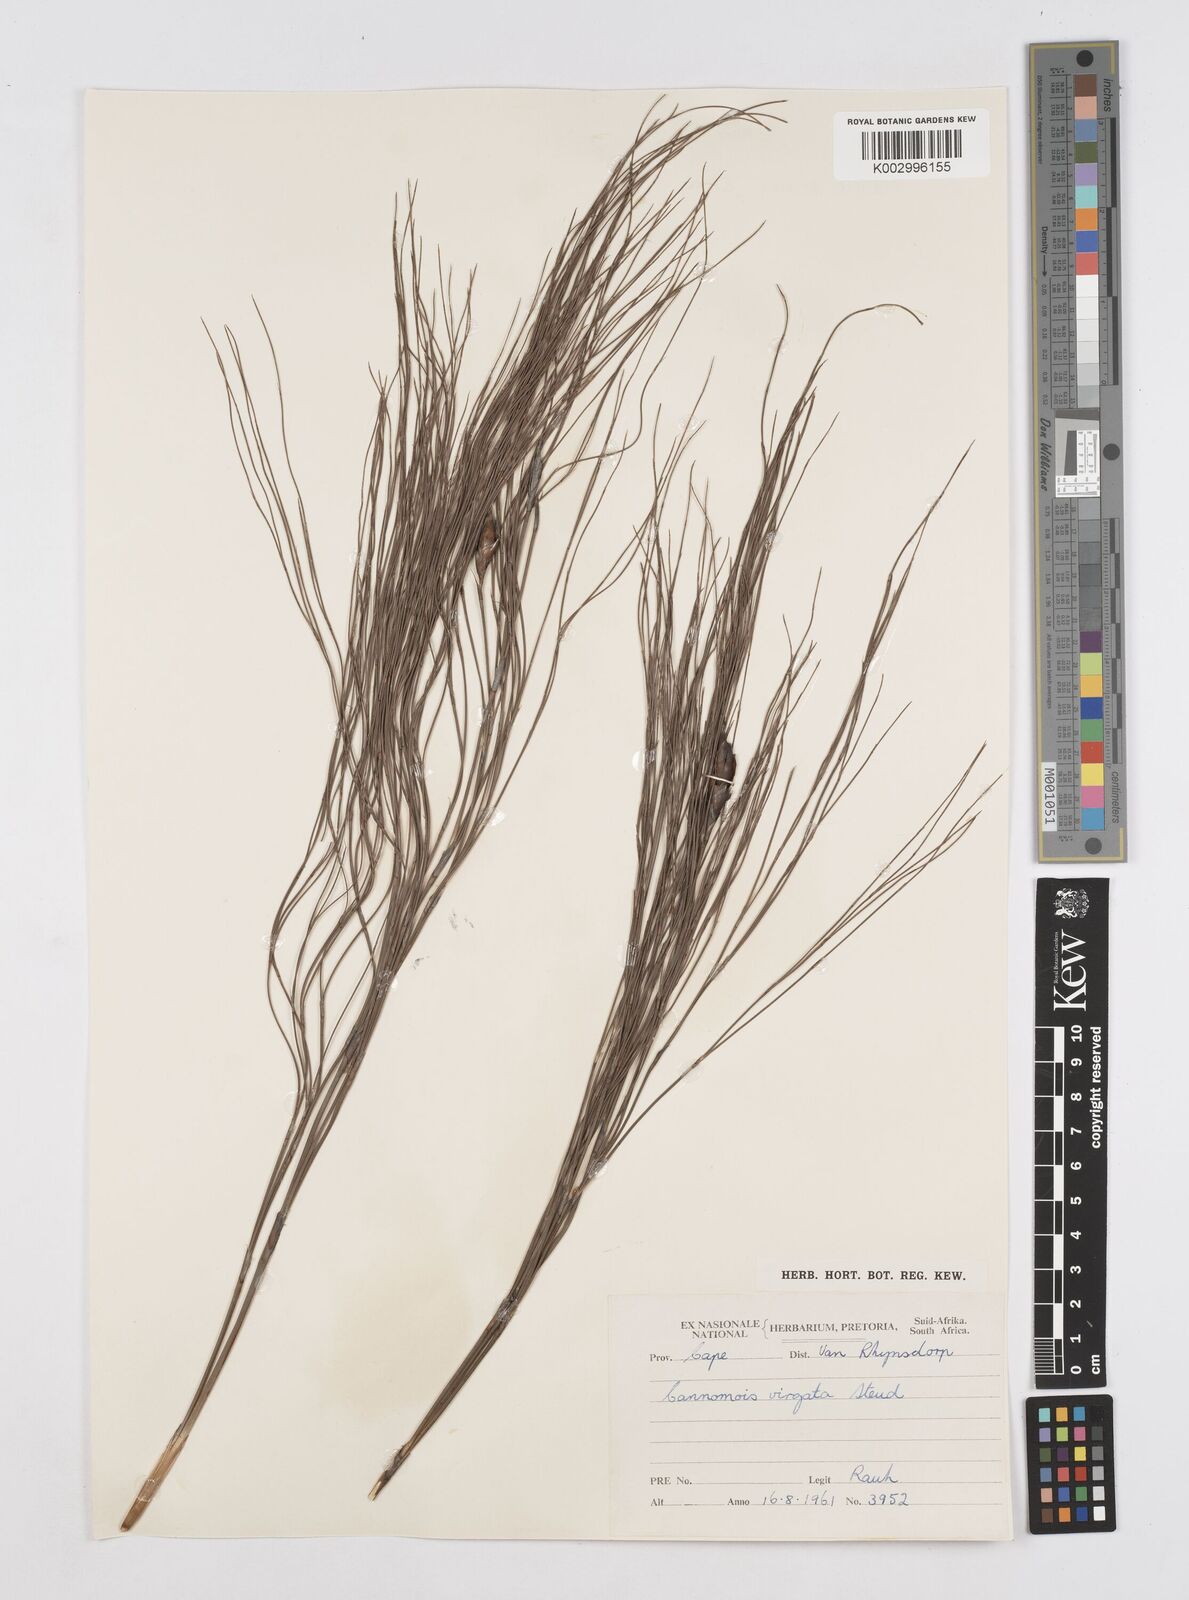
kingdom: Plantae
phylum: Tracheophyta
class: Liliopsida
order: Poales
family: Restionaceae
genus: Cannomois
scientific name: Cannomois virgata
